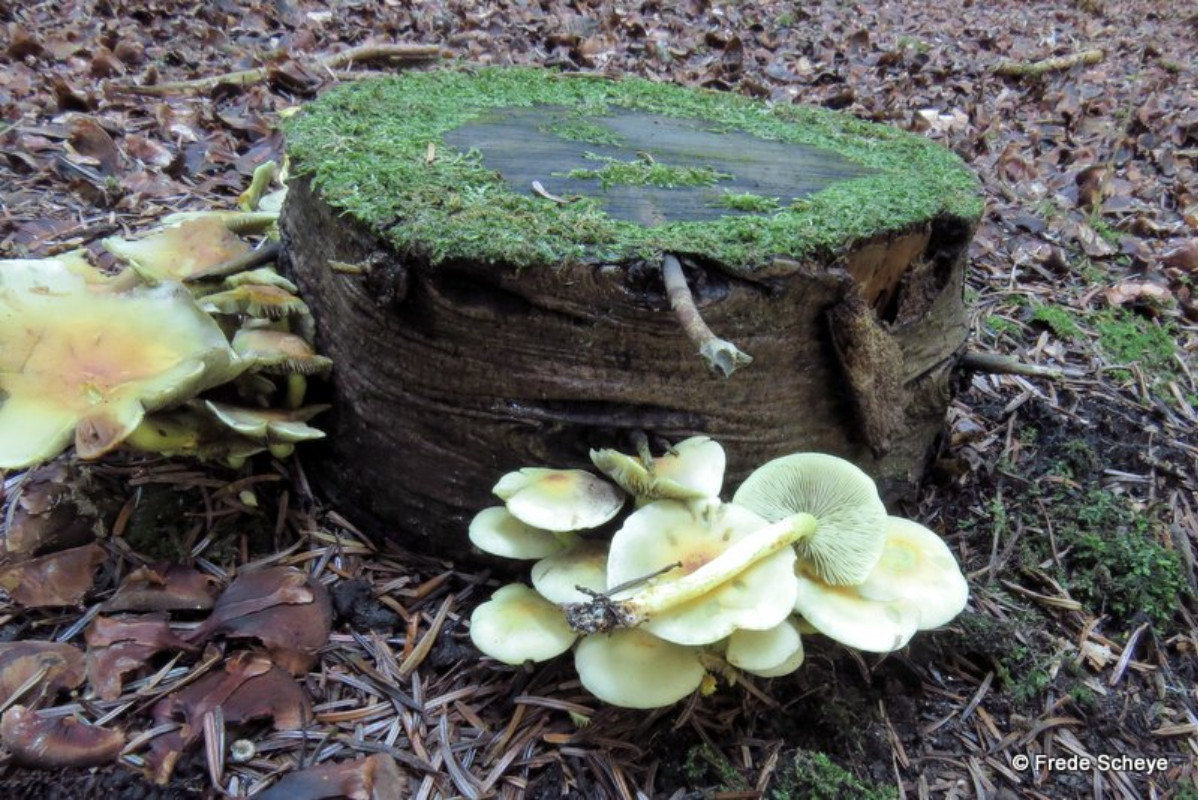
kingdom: Fungi
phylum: Basidiomycota
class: Agaricomycetes
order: Agaricales
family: Strophariaceae
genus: Hypholoma
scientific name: Hypholoma fasciculare
